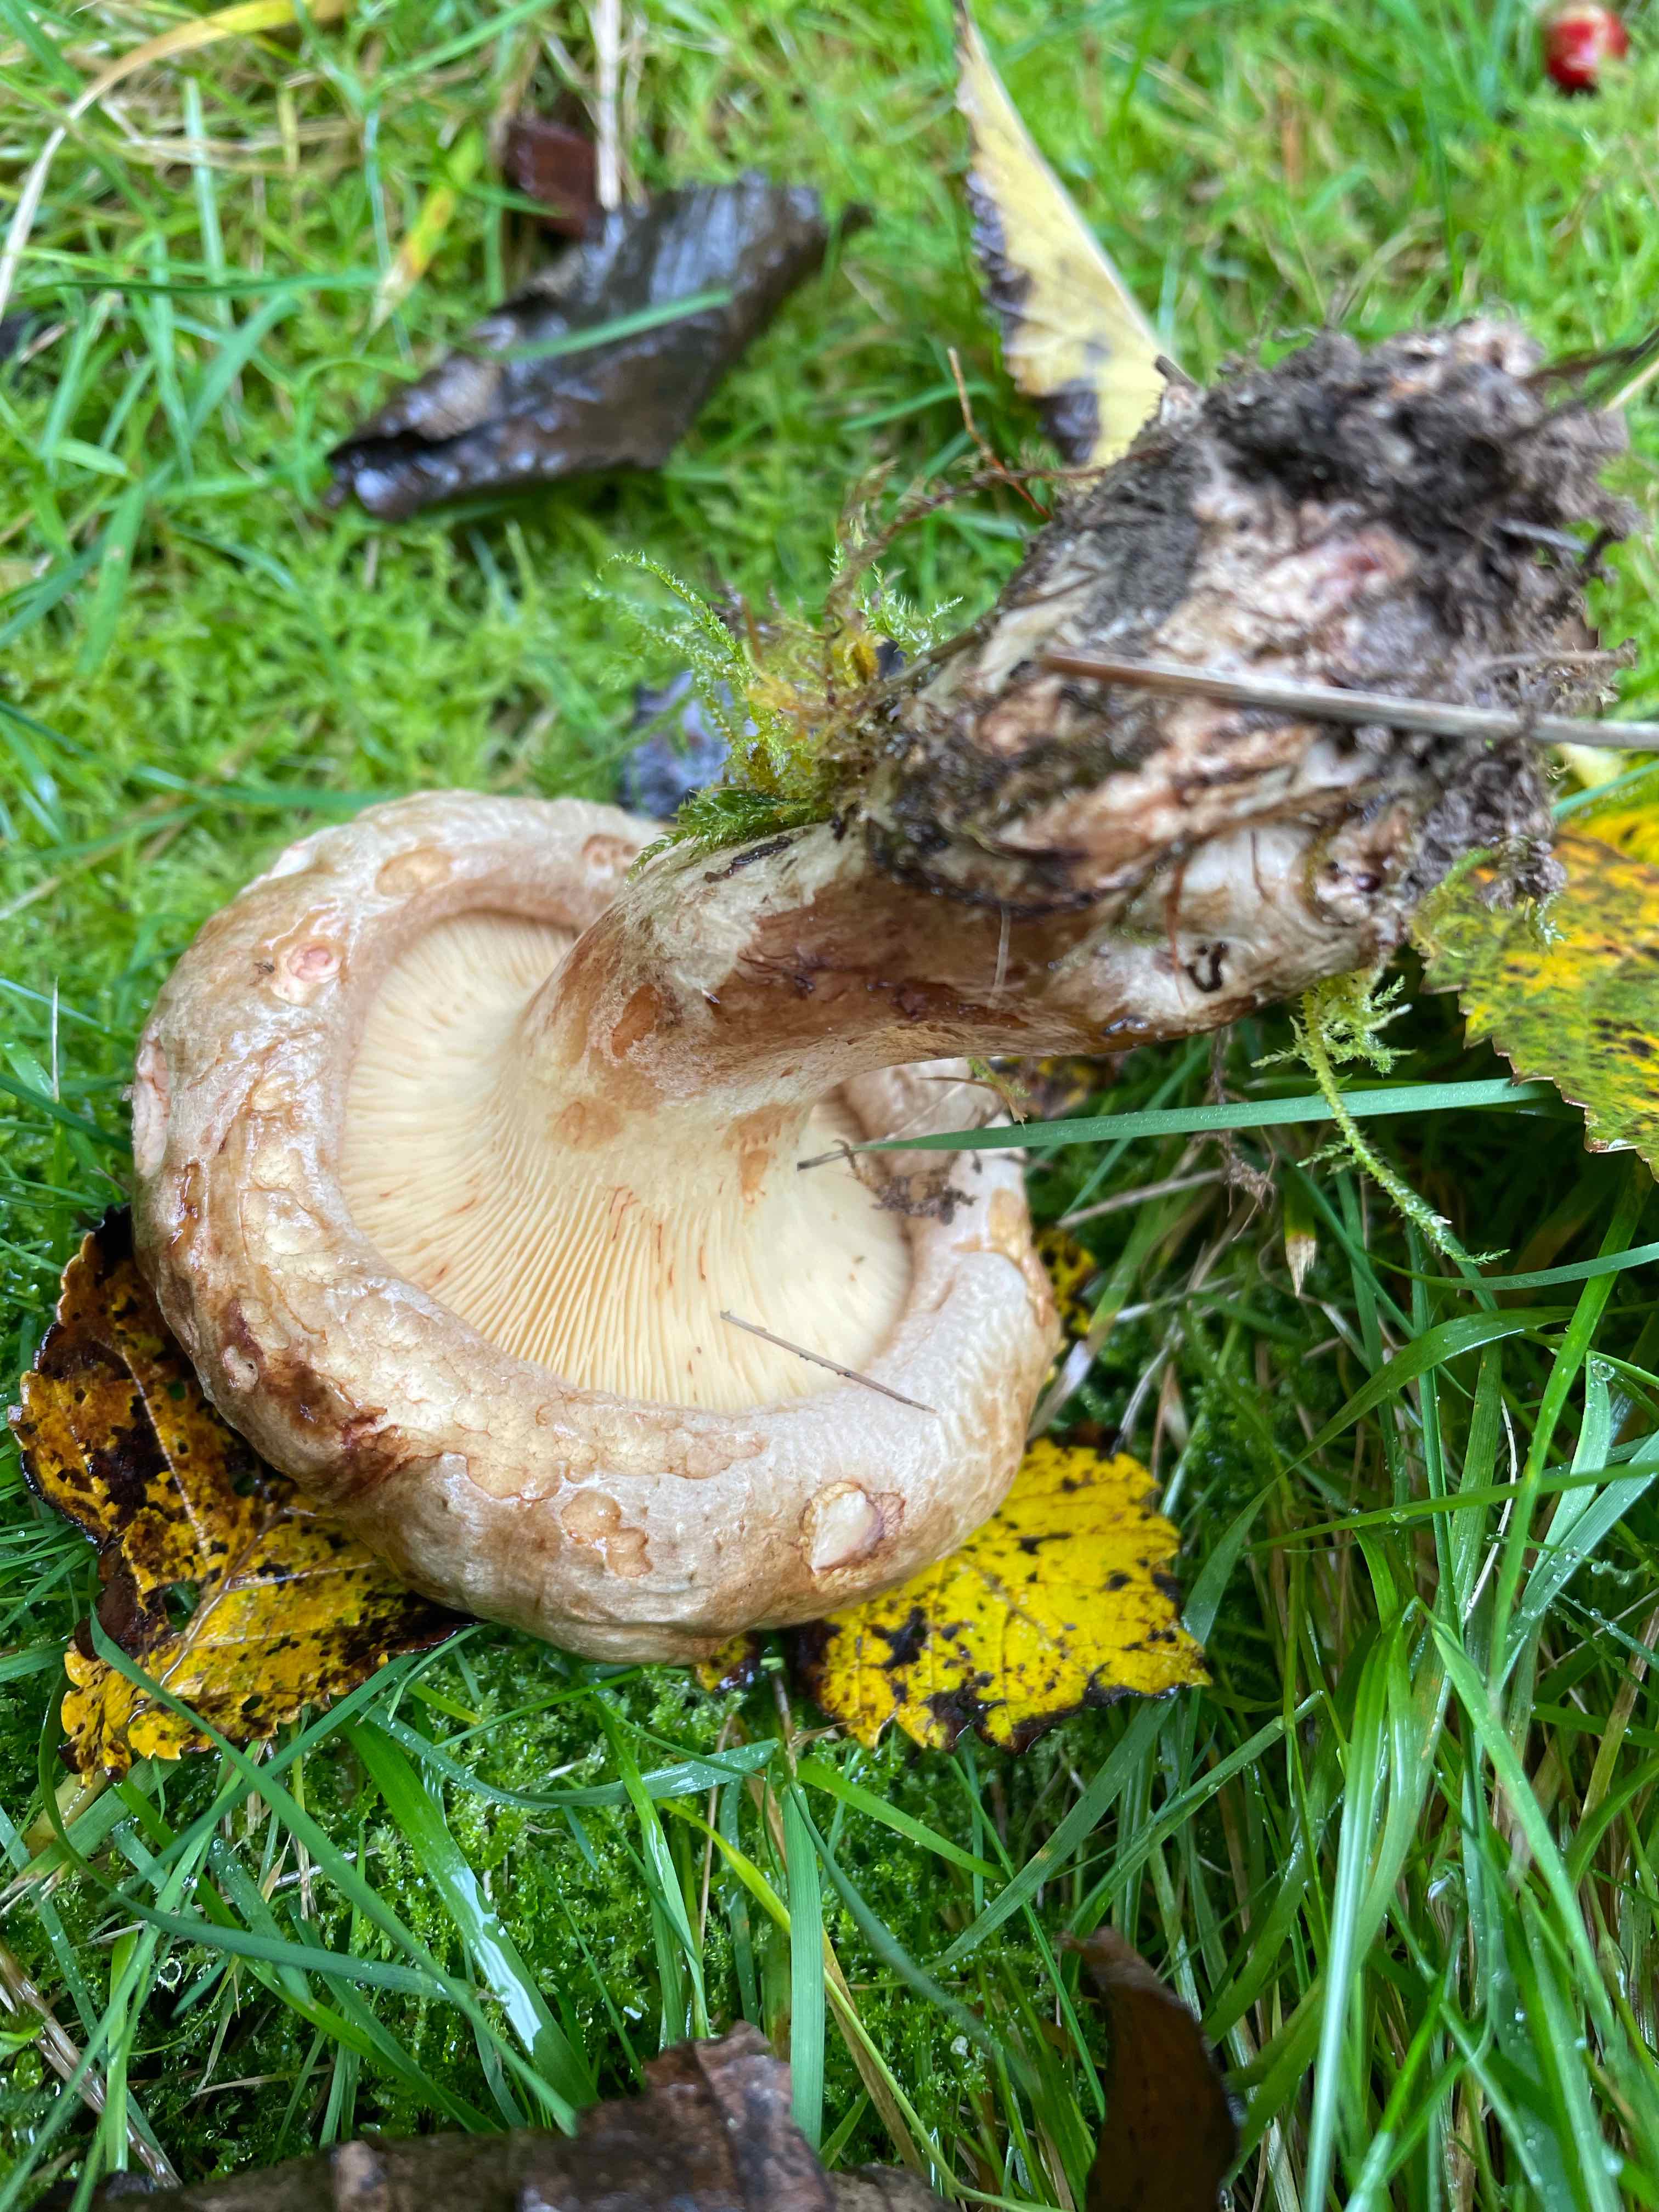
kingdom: Fungi
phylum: Basidiomycota
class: Agaricomycetes
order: Boletales
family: Paxillaceae
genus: Paxillus
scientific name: Paxillus involutus
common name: almindelig netbladhat
